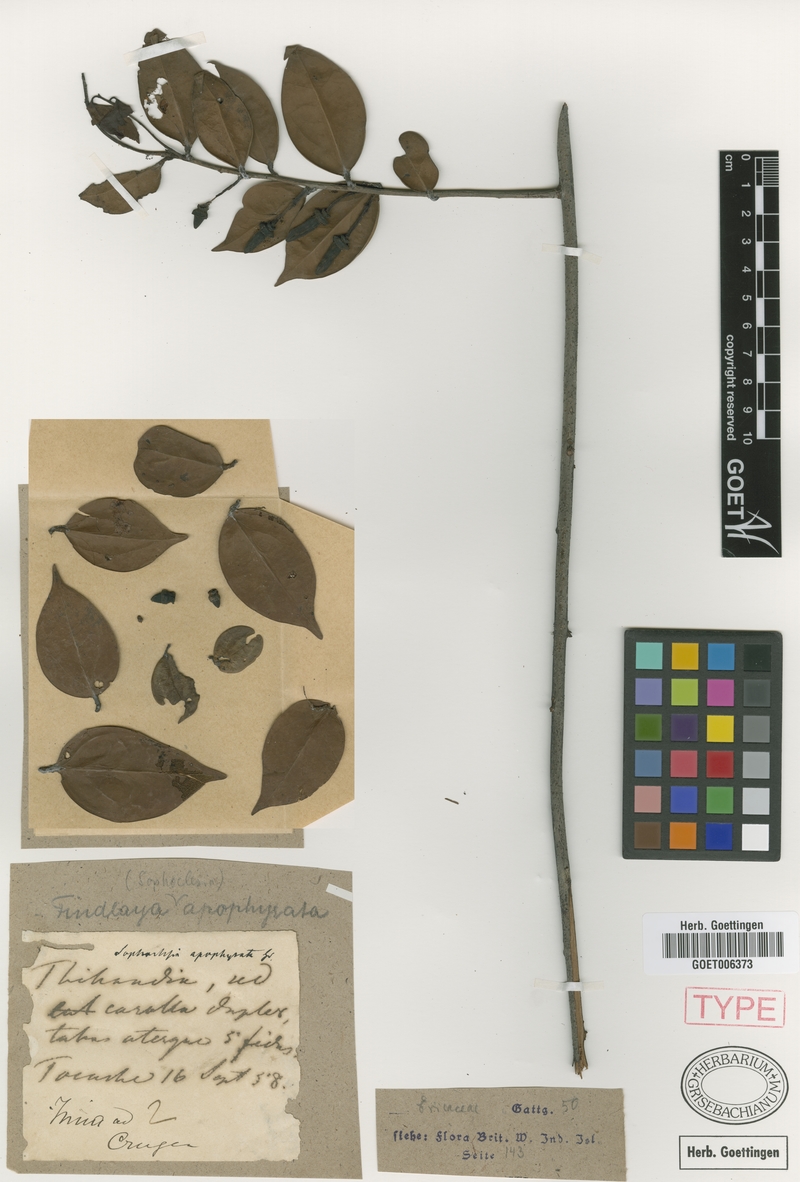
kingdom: Plantae
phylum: Tracheophyta
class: Magnoliopsida
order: Ericales
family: Ericaceae
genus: Orthaea
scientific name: Orthaea apophysata
